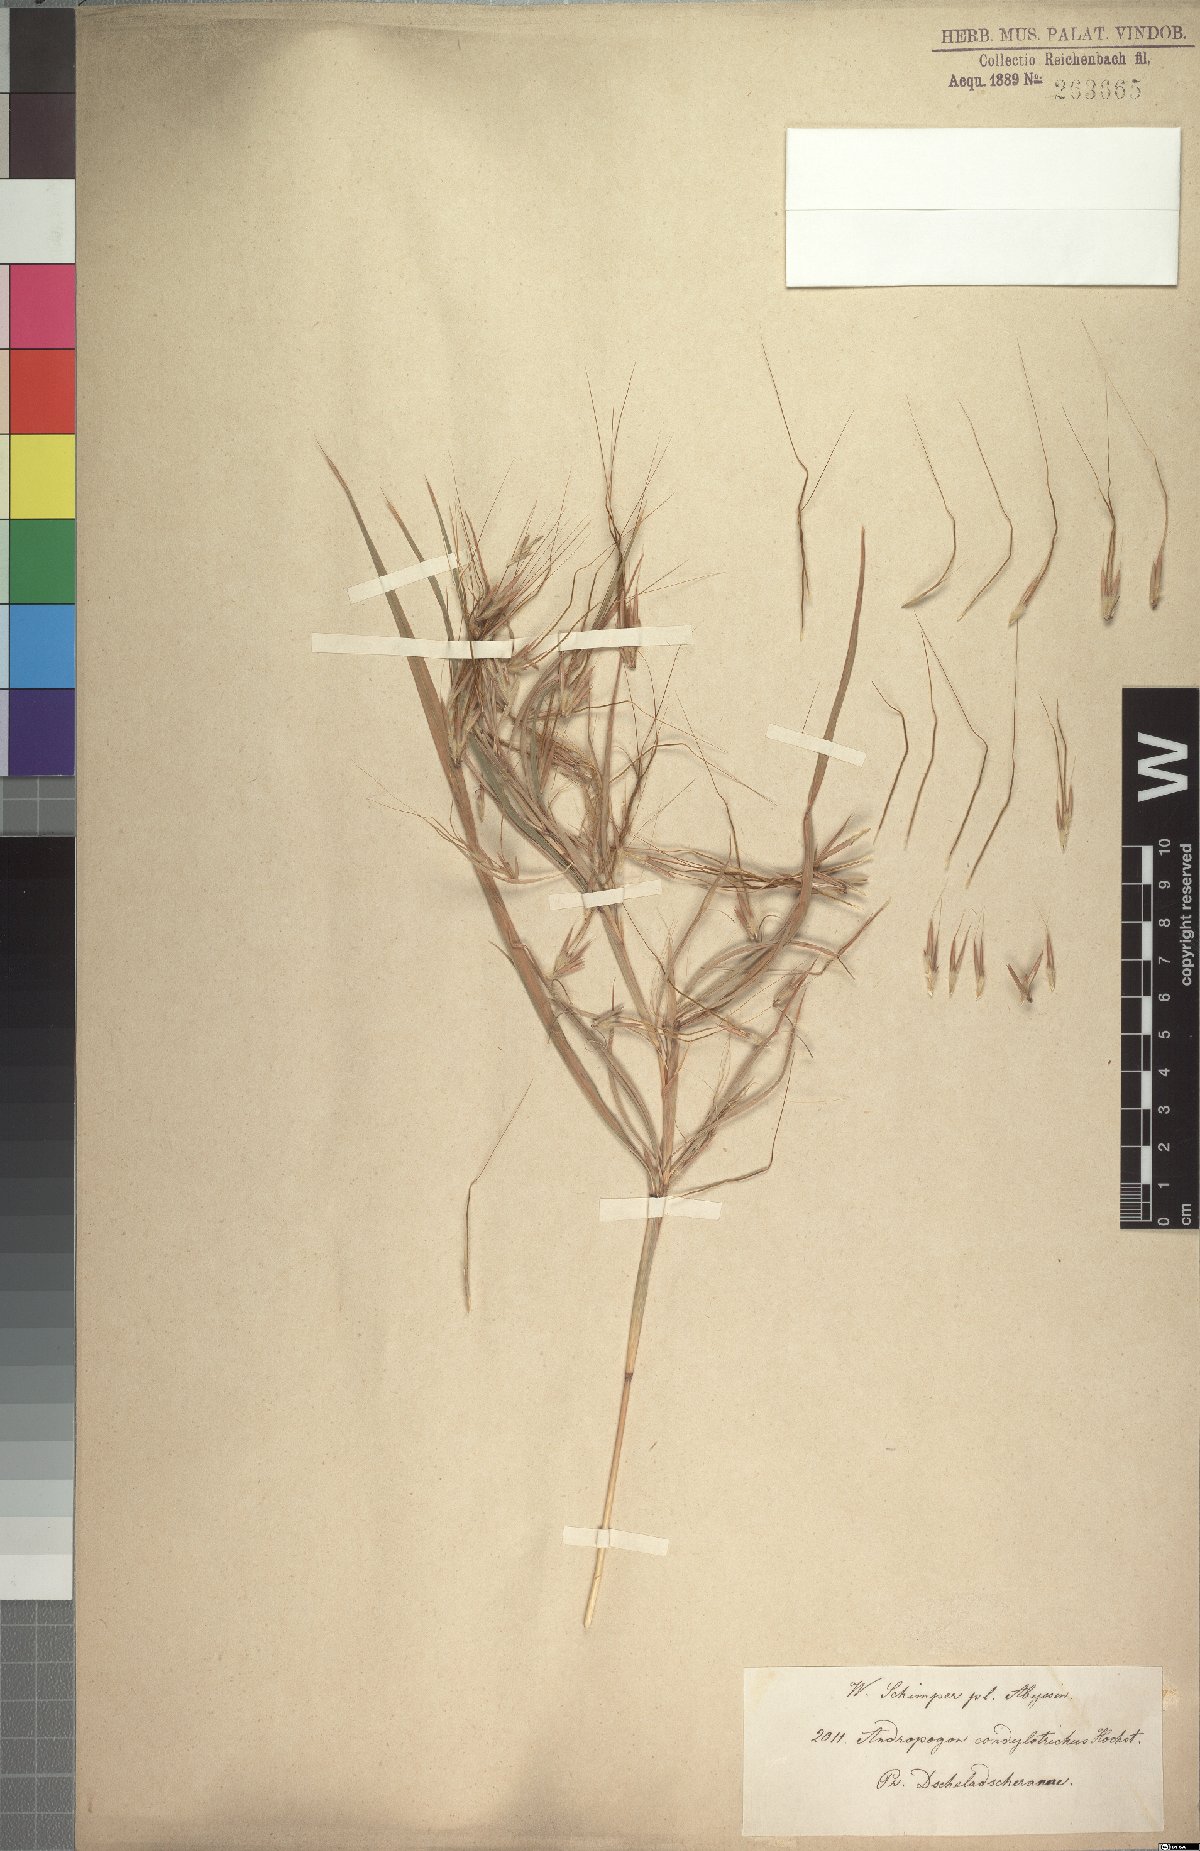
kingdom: Plantae
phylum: Tracheophyta
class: Liliopsida
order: Poales
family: Poaceae
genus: Euclasta
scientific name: Euclasta condylotricha
